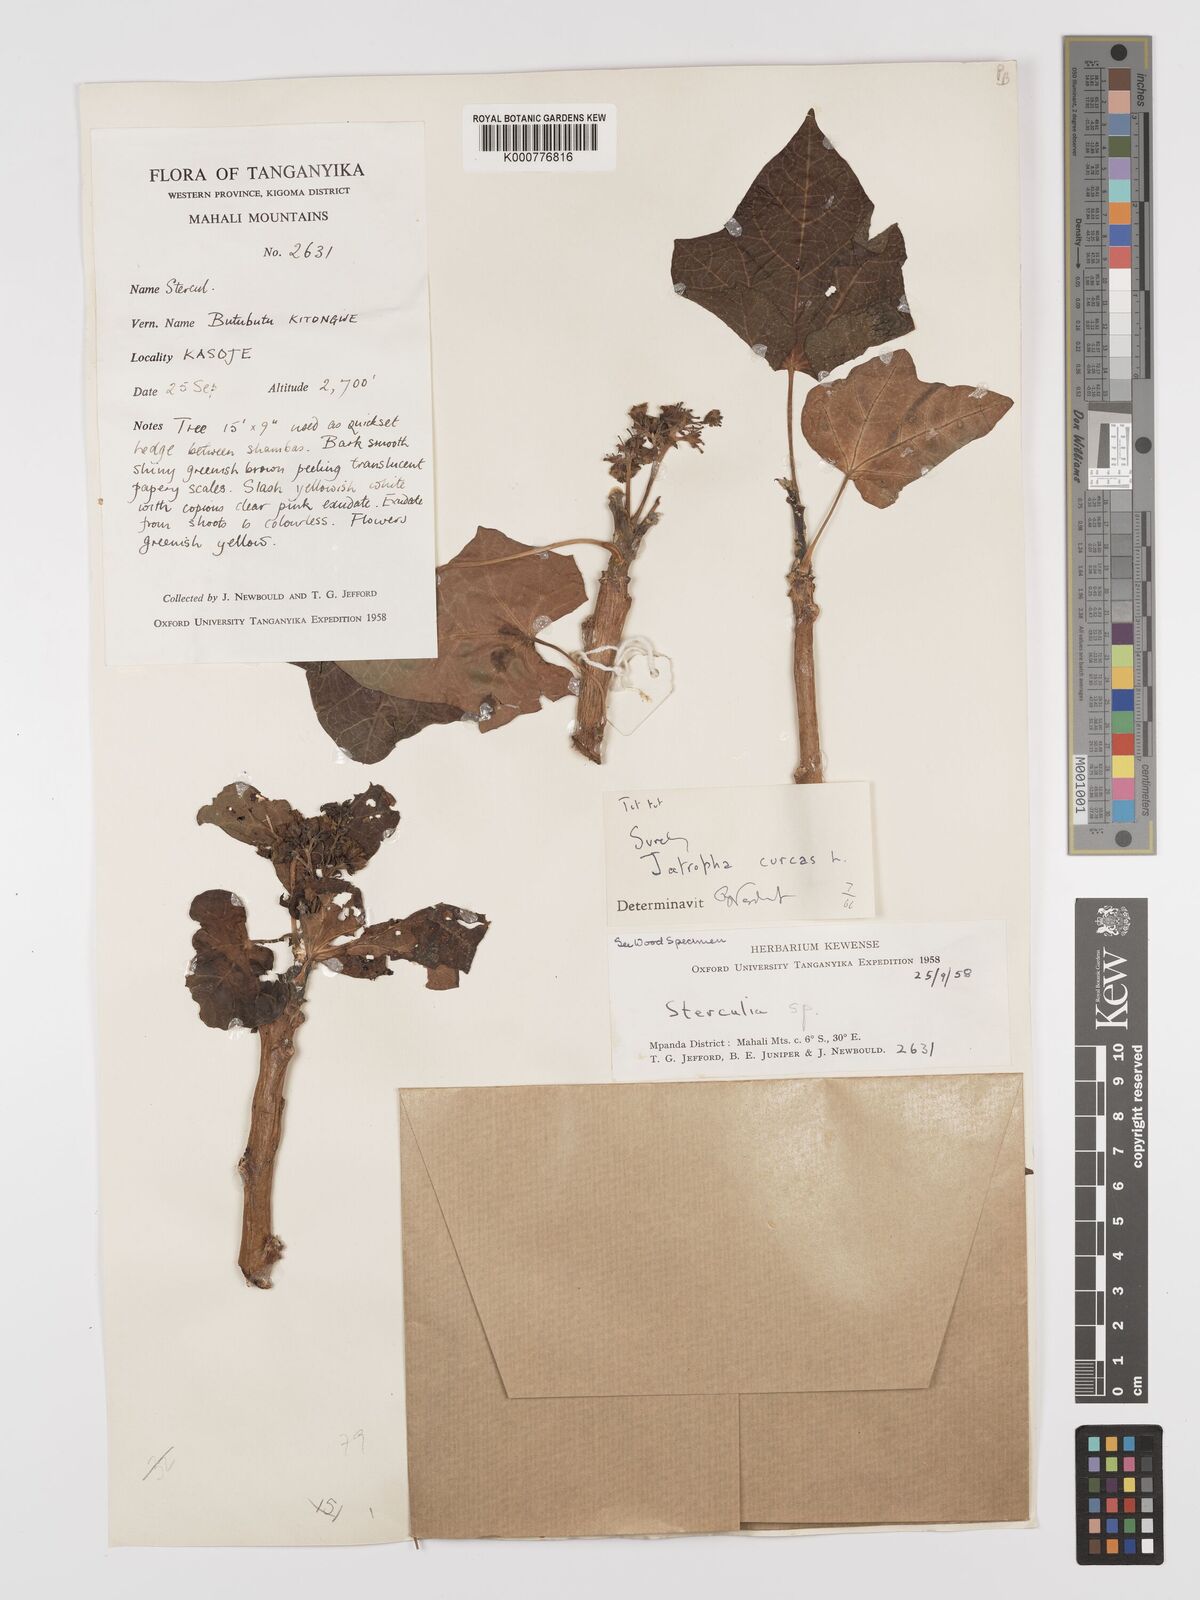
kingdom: Plantae
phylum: Tracheophyta
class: Magnoliopsida
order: Malpighiales
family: Euphorbiaceae
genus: Jatropha
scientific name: Jatropha curcas
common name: Barbados nut
